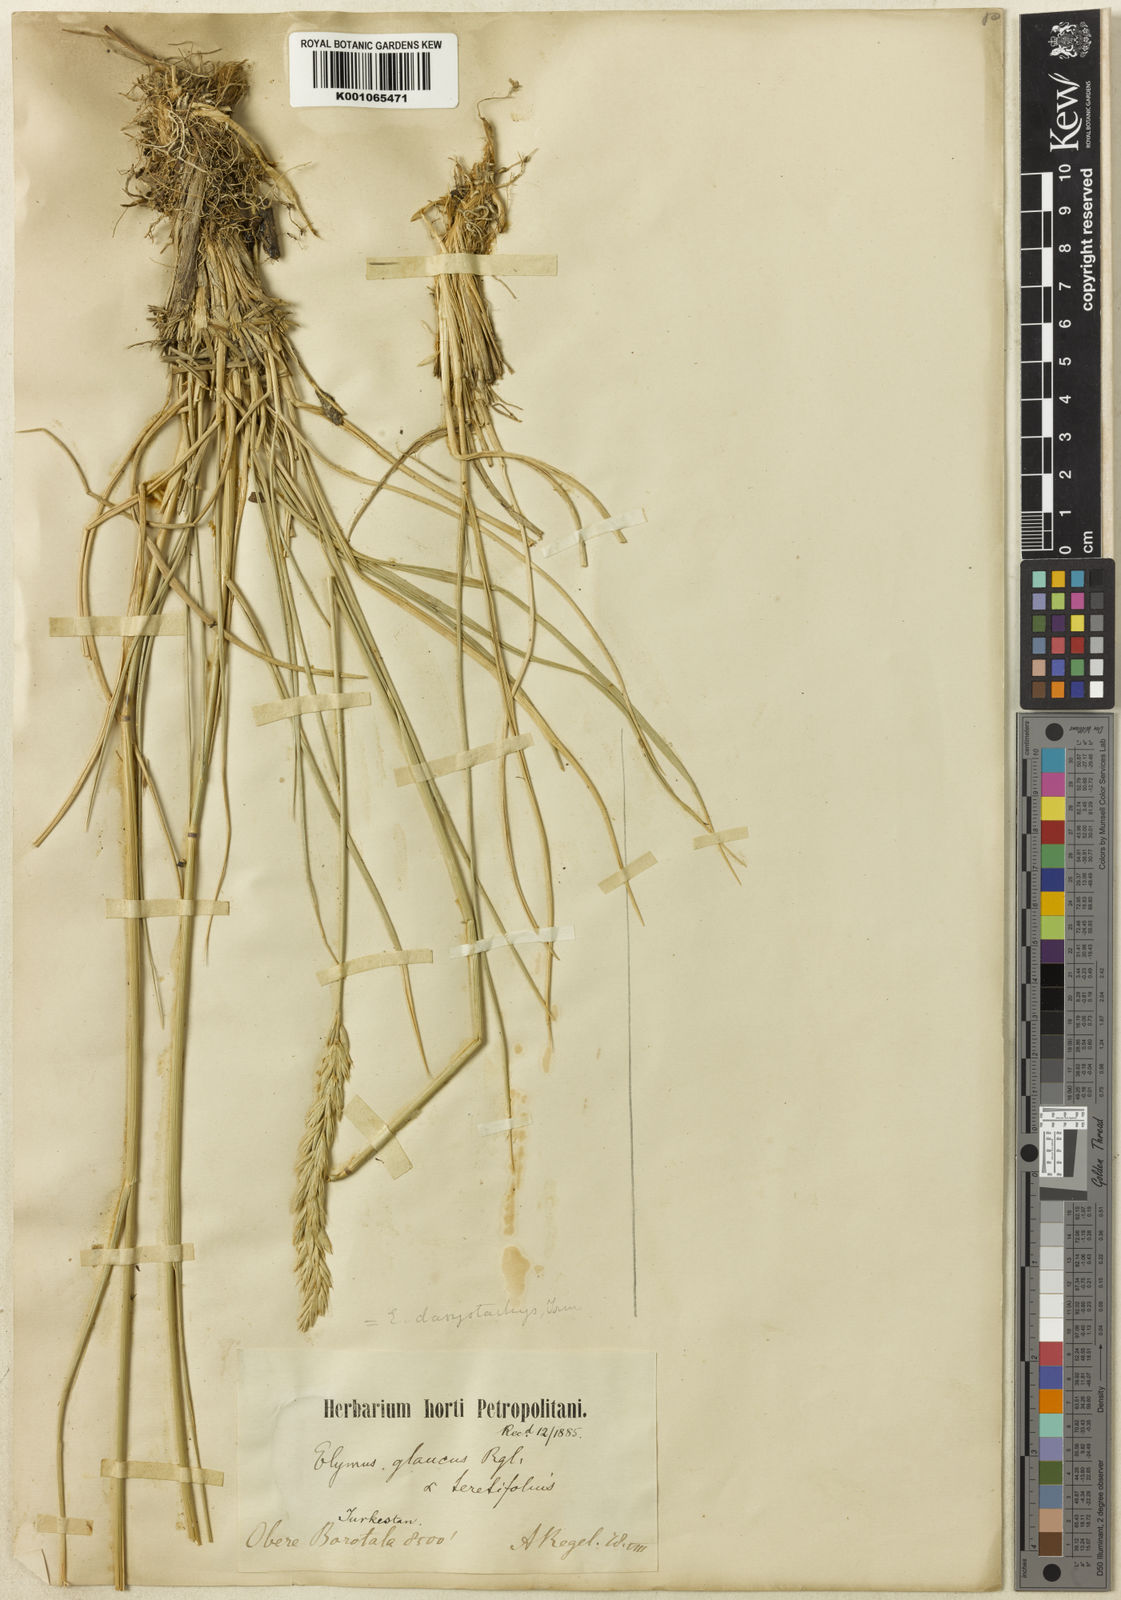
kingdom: Plantae
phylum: Tracheophyta
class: Liliopsida
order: Poales
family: Poaceae
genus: Leymus
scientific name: Leymus secalinus
